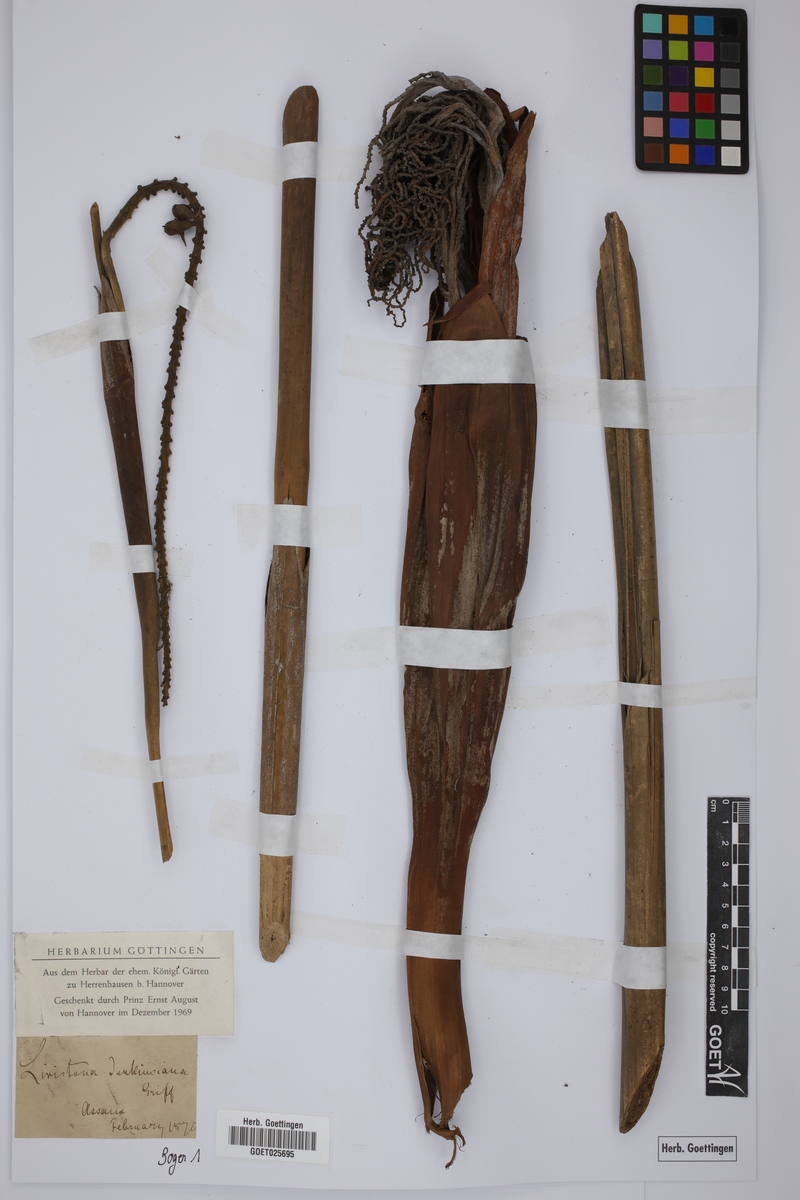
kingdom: Plantae
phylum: Tracheophyta
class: Liliopsida
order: Arecales
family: Arecaceae
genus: Livistona
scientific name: Livistona jenkinsiana
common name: Himalayan fan palm
